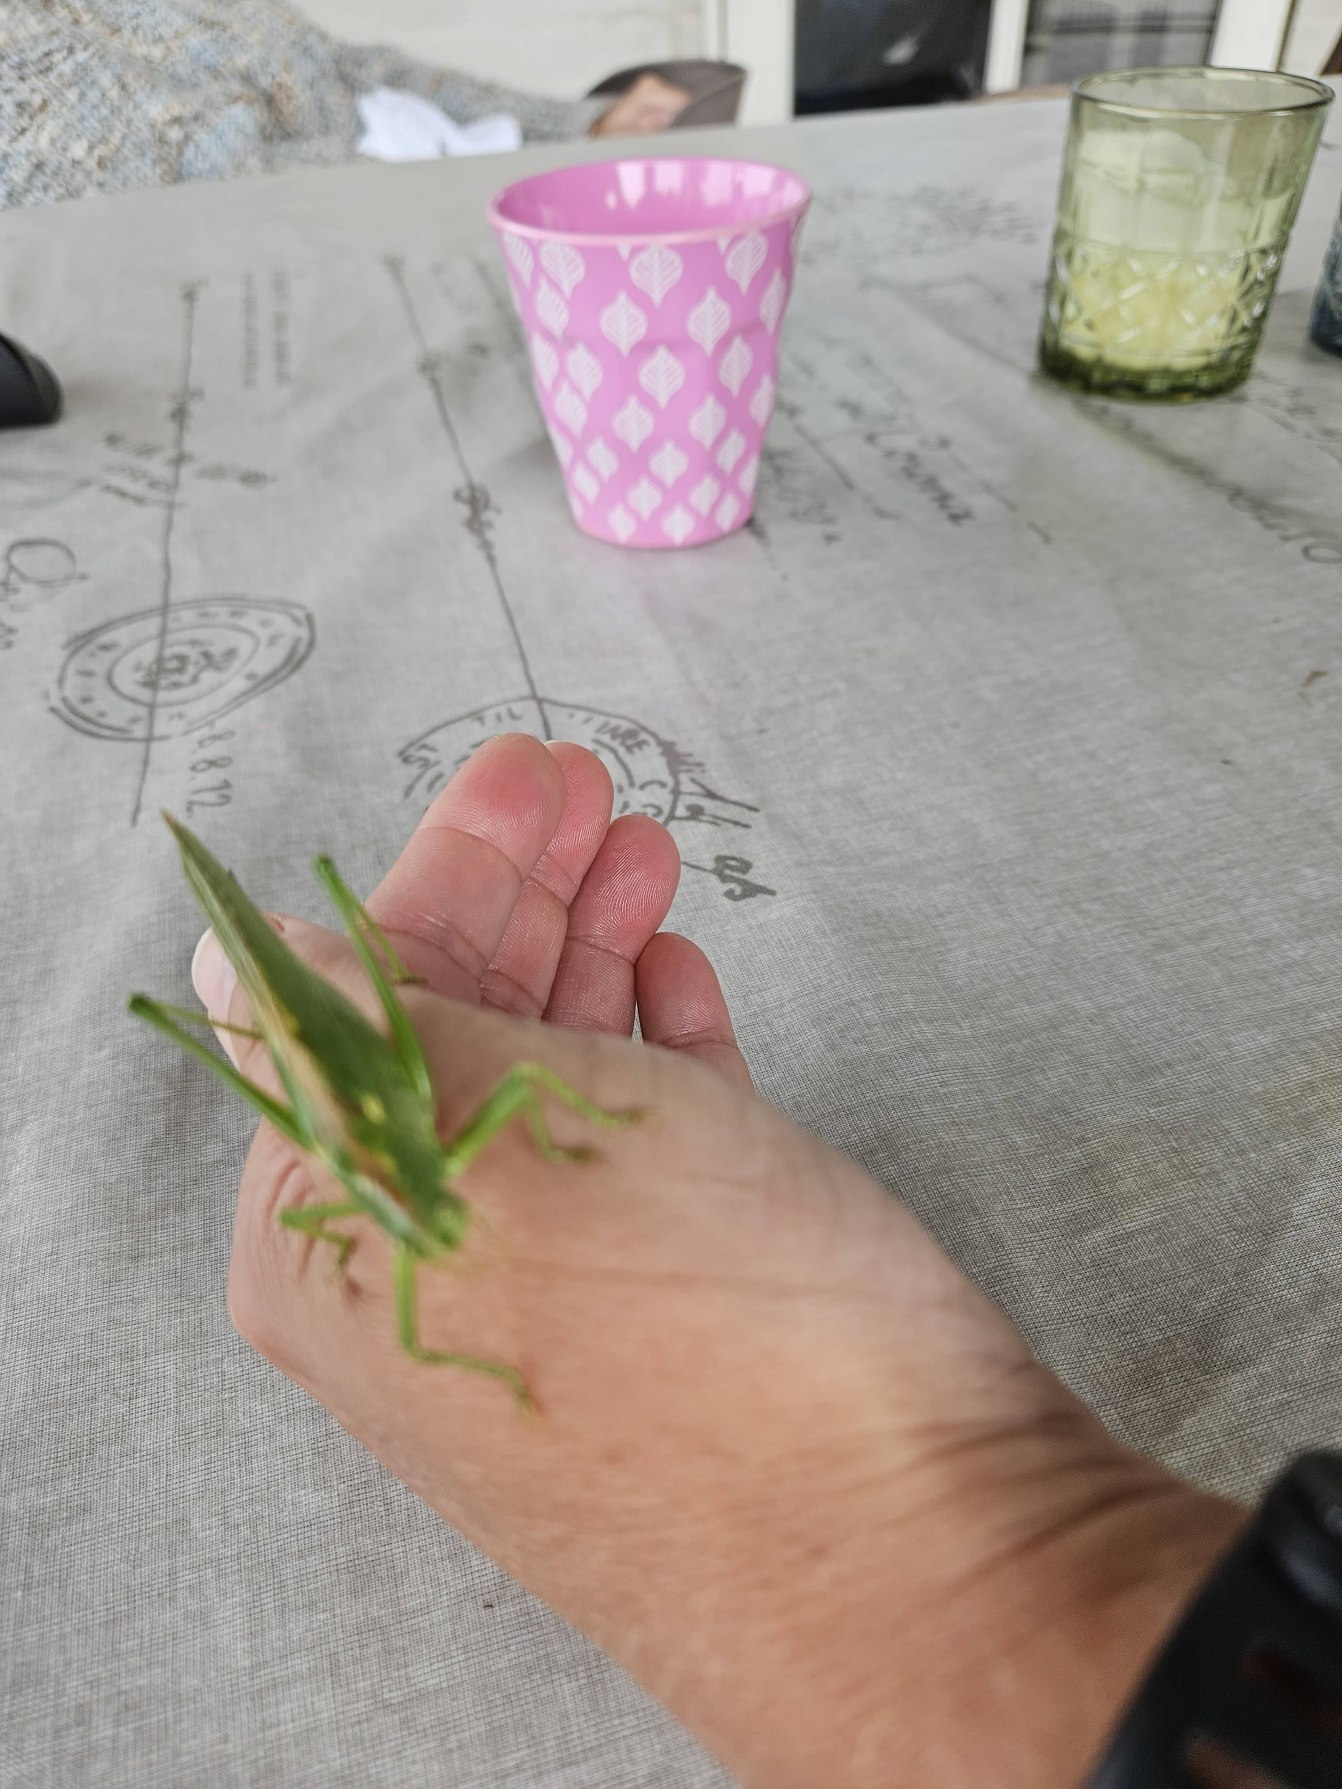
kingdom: Animalia
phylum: Arthropoda
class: Insecta
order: Orthoptera
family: Tettigoniidae
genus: Tettigonia
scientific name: Tettigonia viridissima
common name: Stor grøn løvgræshoppe
